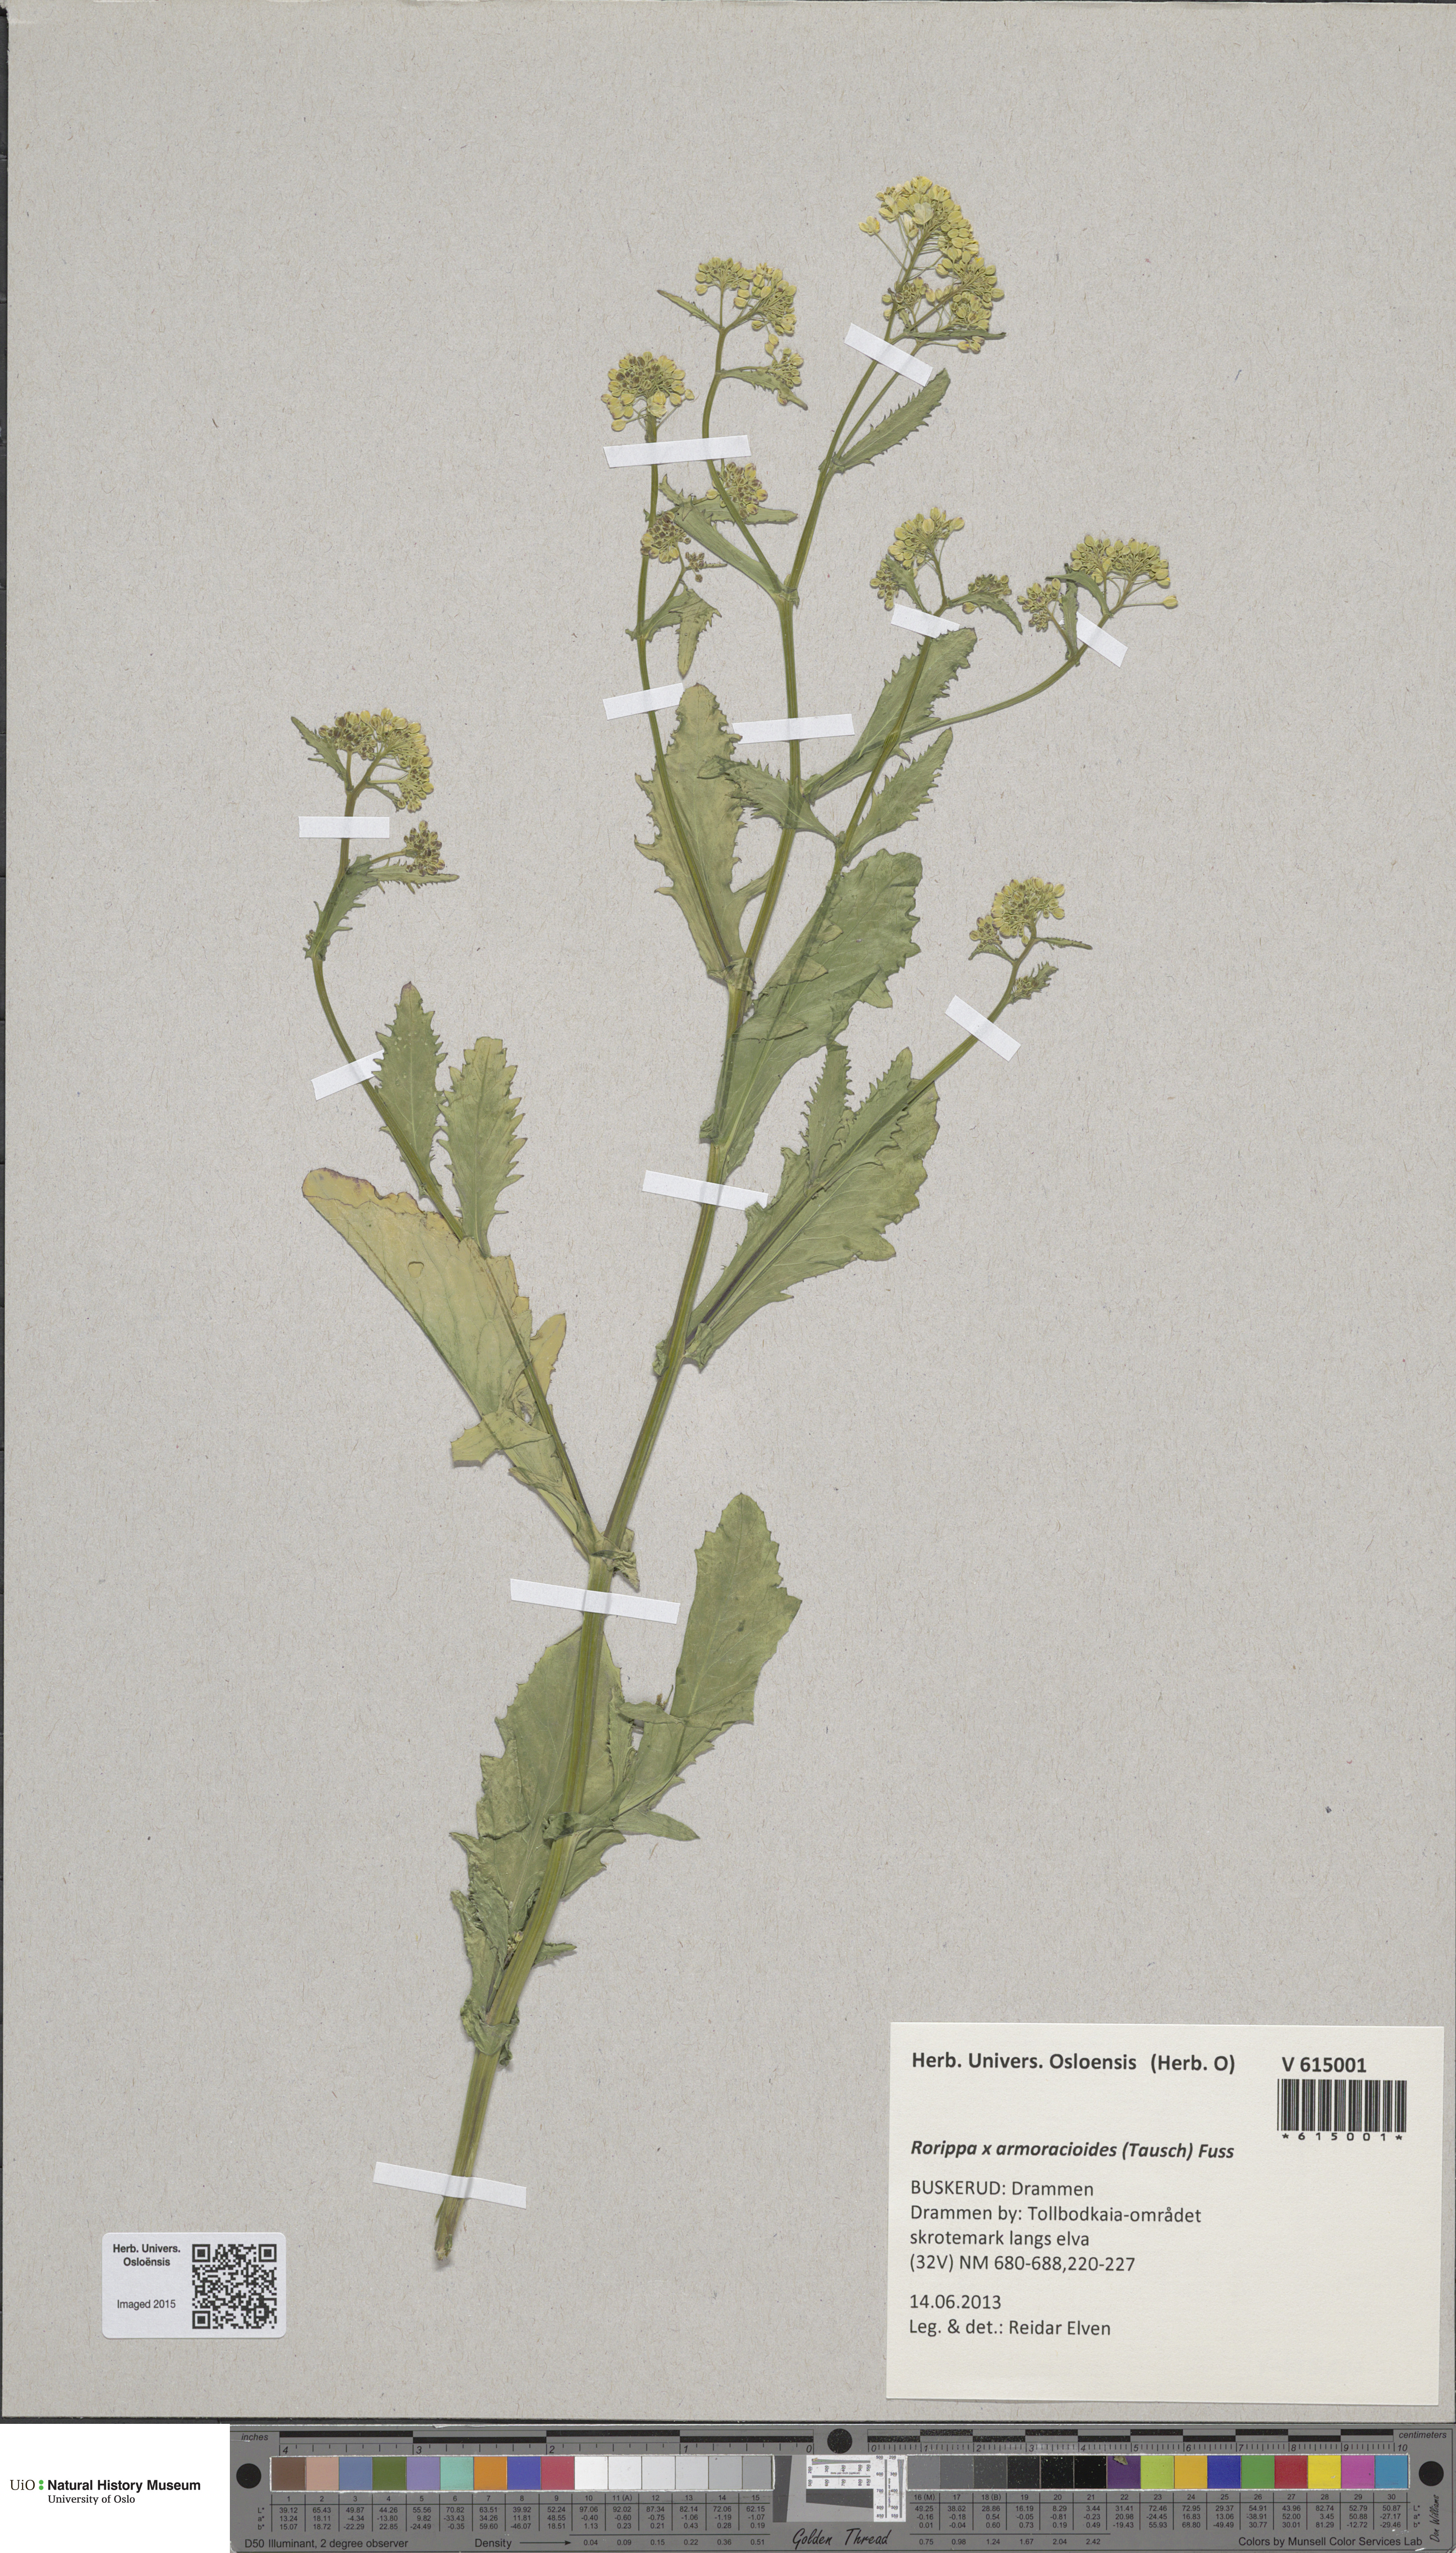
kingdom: Plantae
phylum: Tracheophyta
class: Magnoliopsida
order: Brassicales
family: Brassicaceae
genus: Rorippa
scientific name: Rorippa anceps
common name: Rorippa
